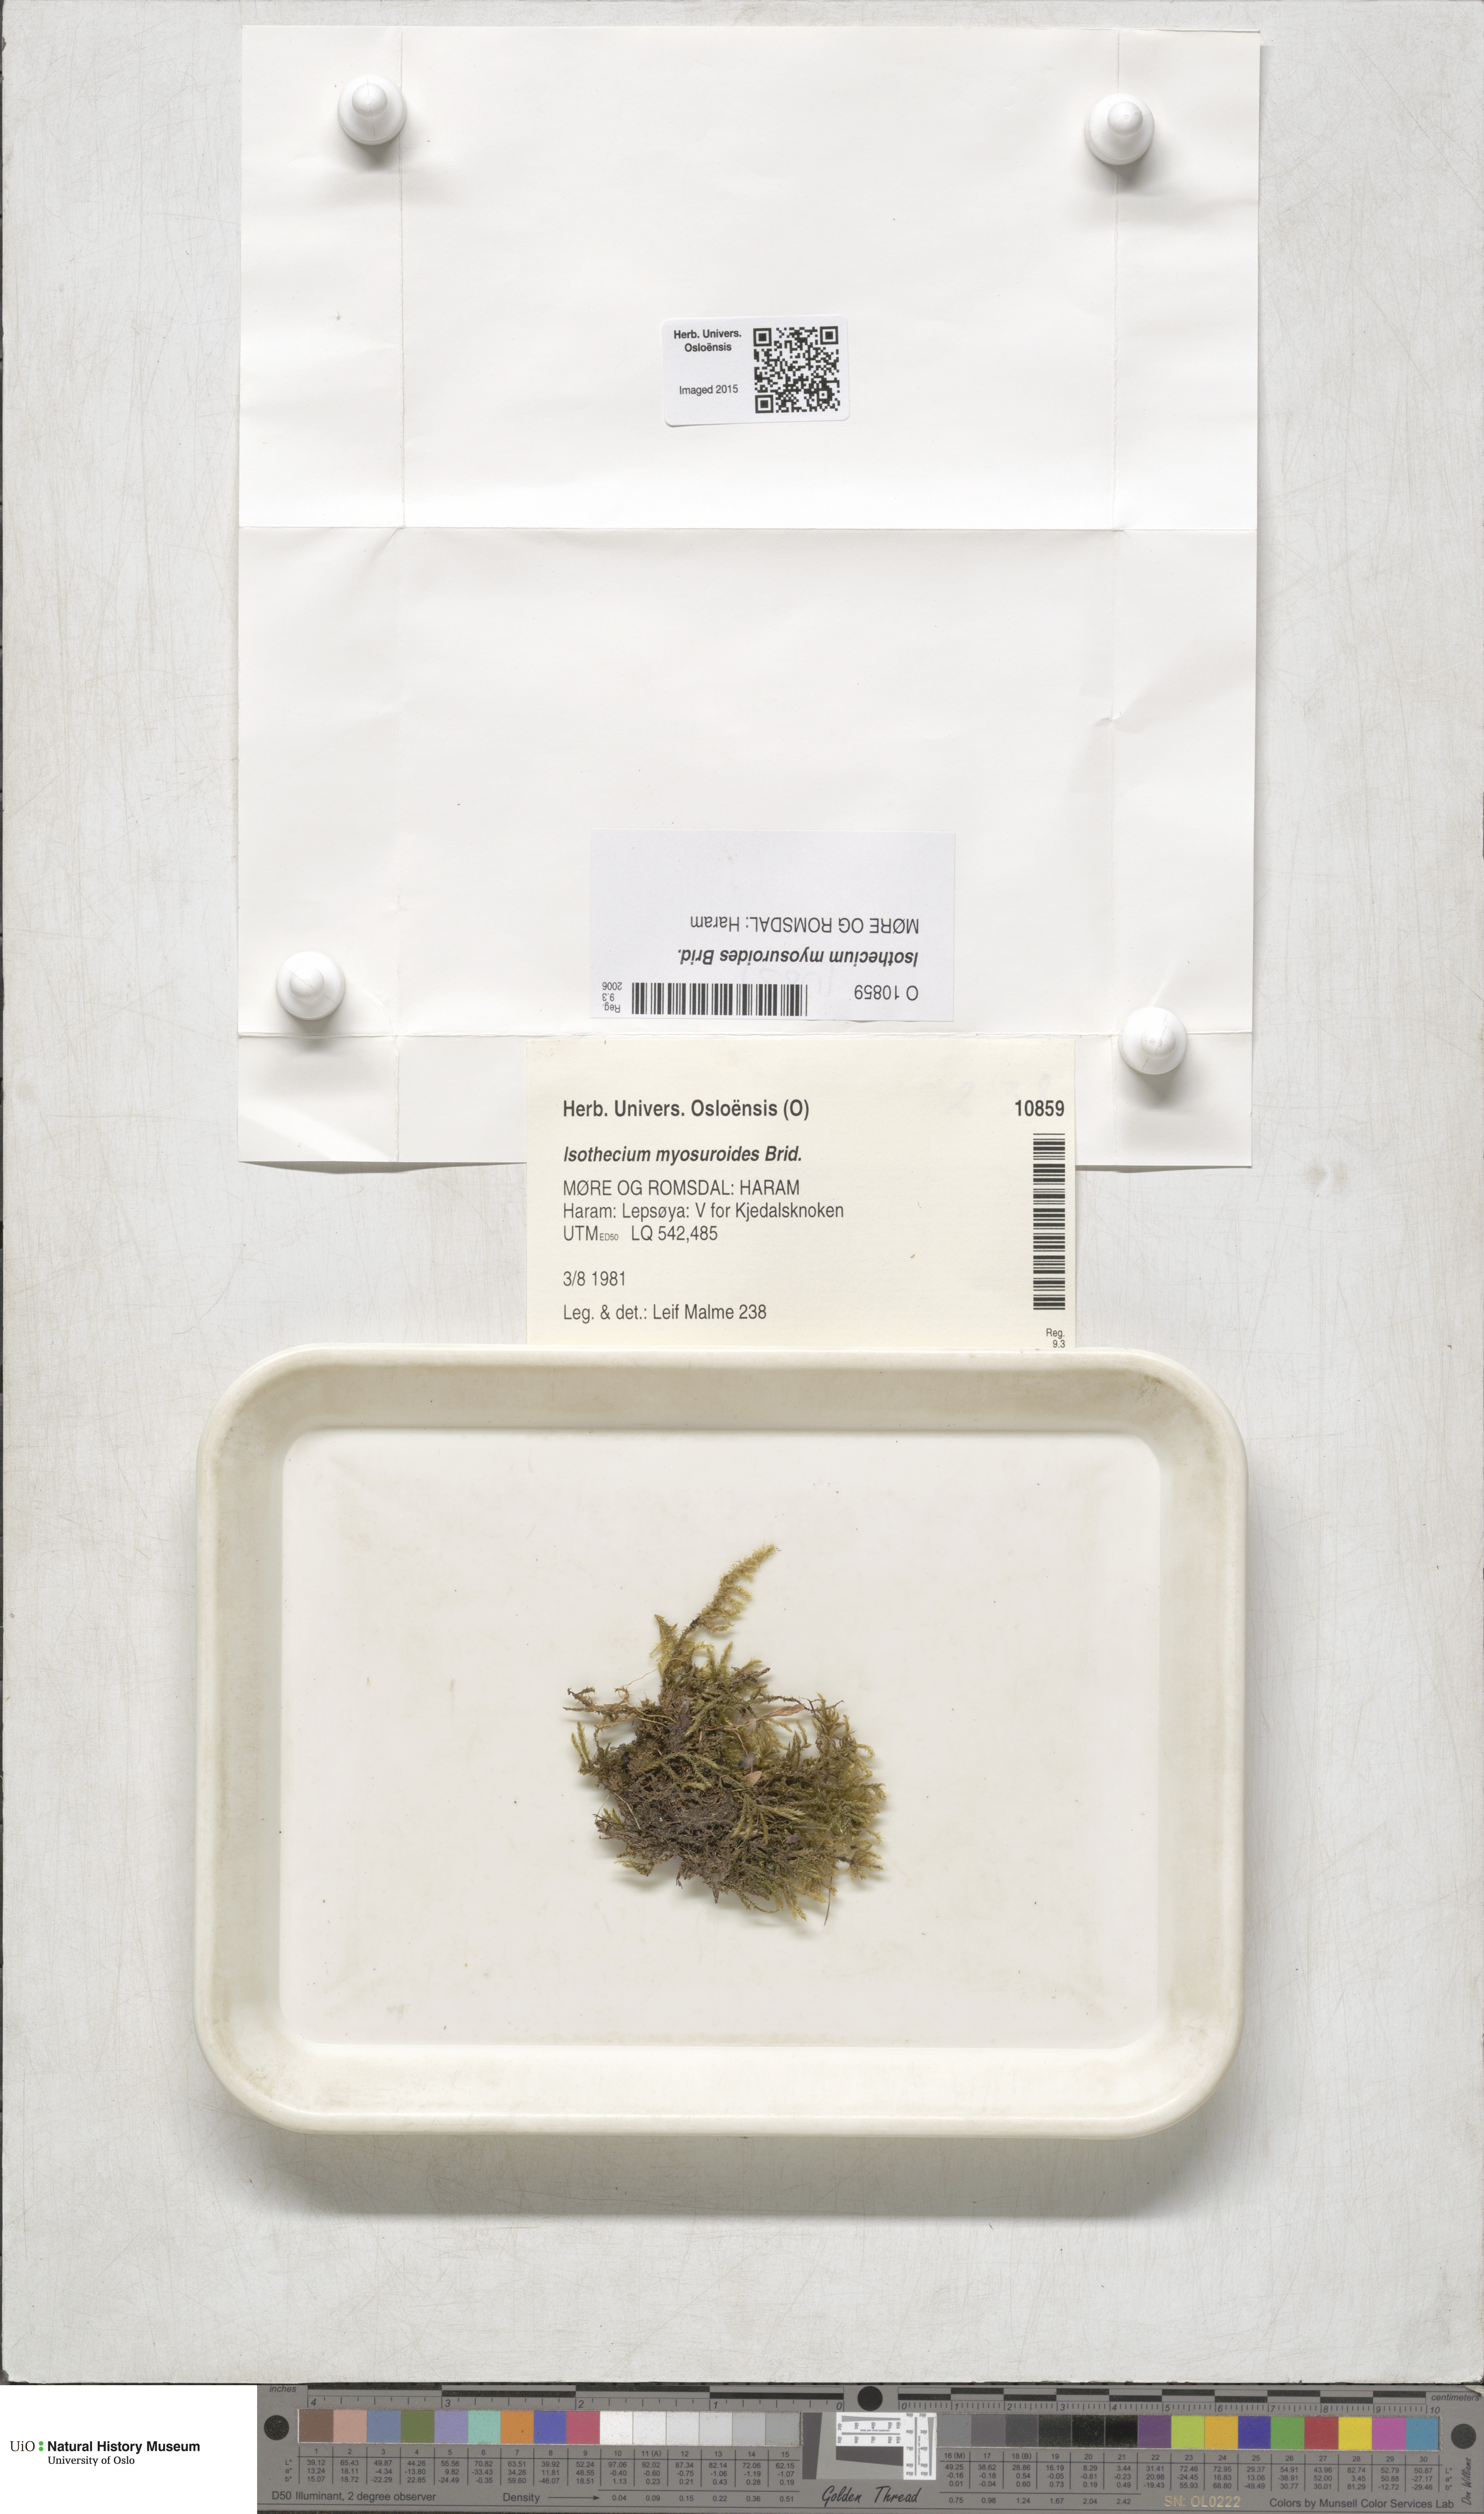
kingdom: Plantae
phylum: Bryophyta
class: Bryopsida
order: Hypnales
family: Lembophyllaceae
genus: Pseudisothecium
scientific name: Pseudisothecium myosuroides
